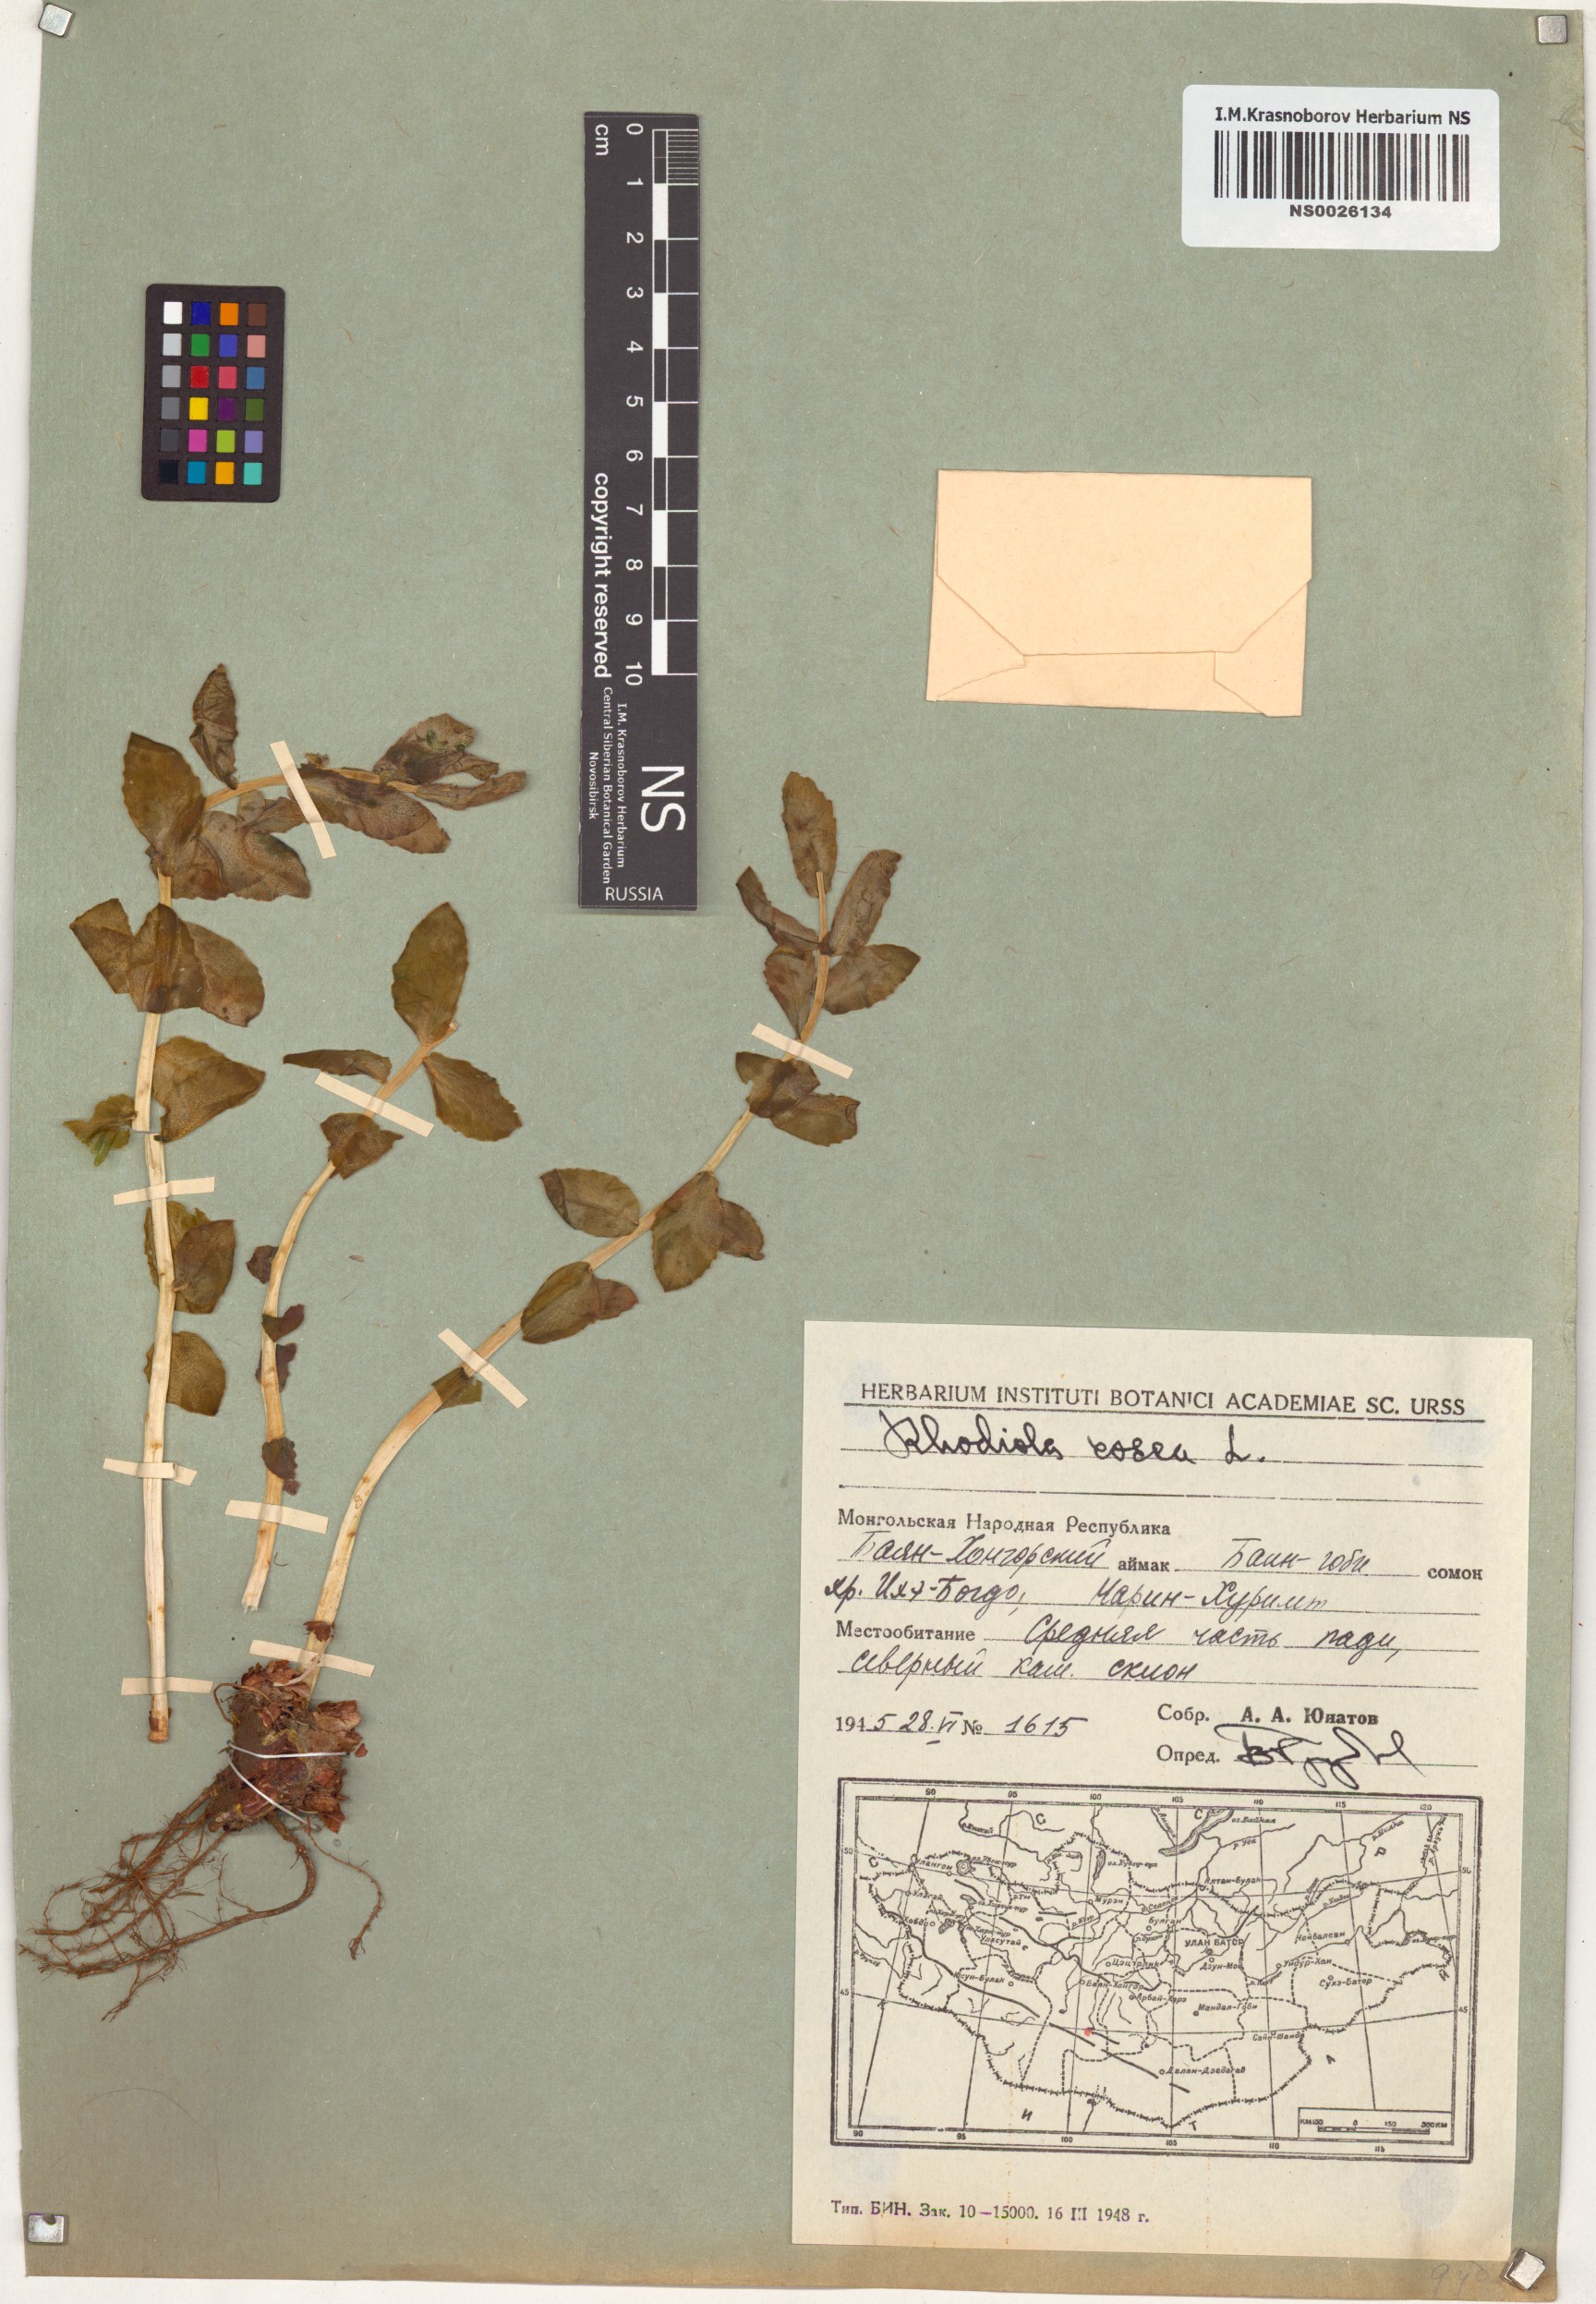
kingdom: Plantae
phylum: Tracheophyta
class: Magnoliopsida
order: Saxifragales
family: Crassulaceae
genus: Rhodiola
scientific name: Rhodiola rosea
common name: Roseroot
